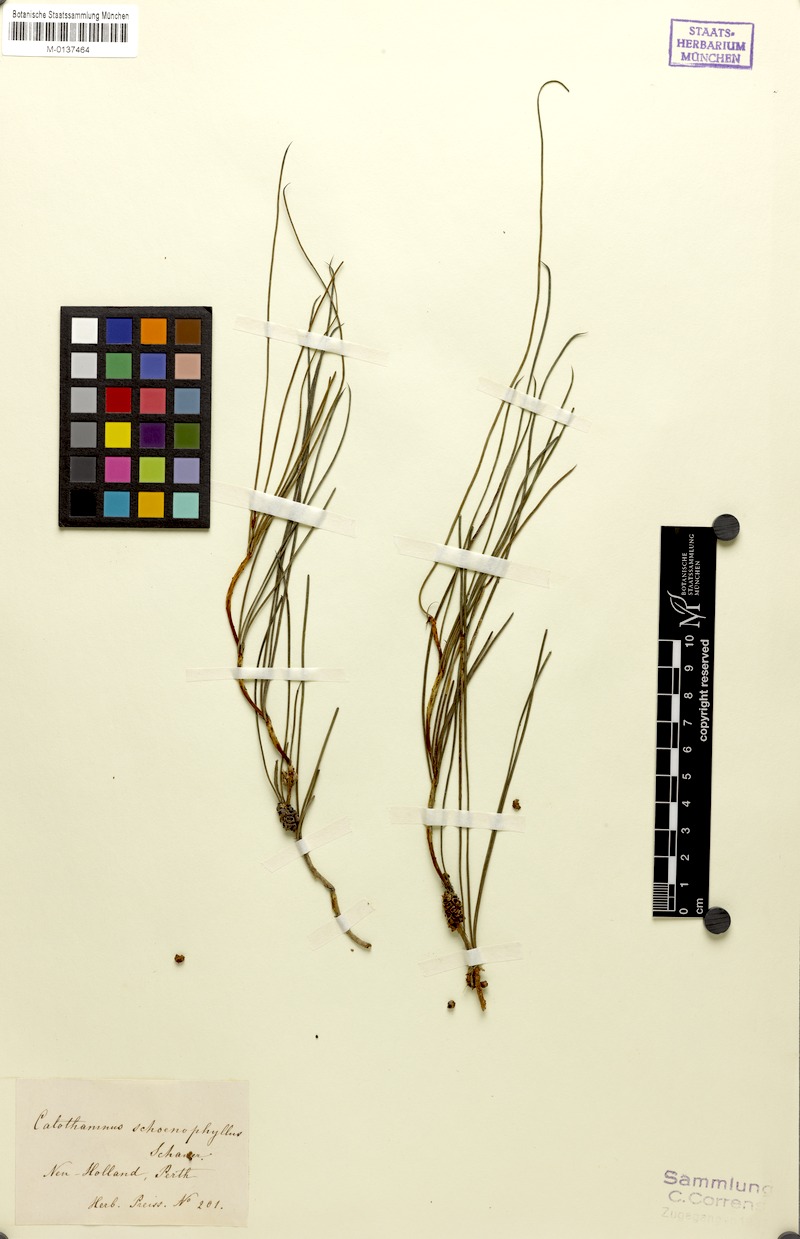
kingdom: Plantae
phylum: Tracheophyta
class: Magnoliopsida
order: Myrtales
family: Myrtaceae
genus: Melaleuca
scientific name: Melaleuca schaueri
